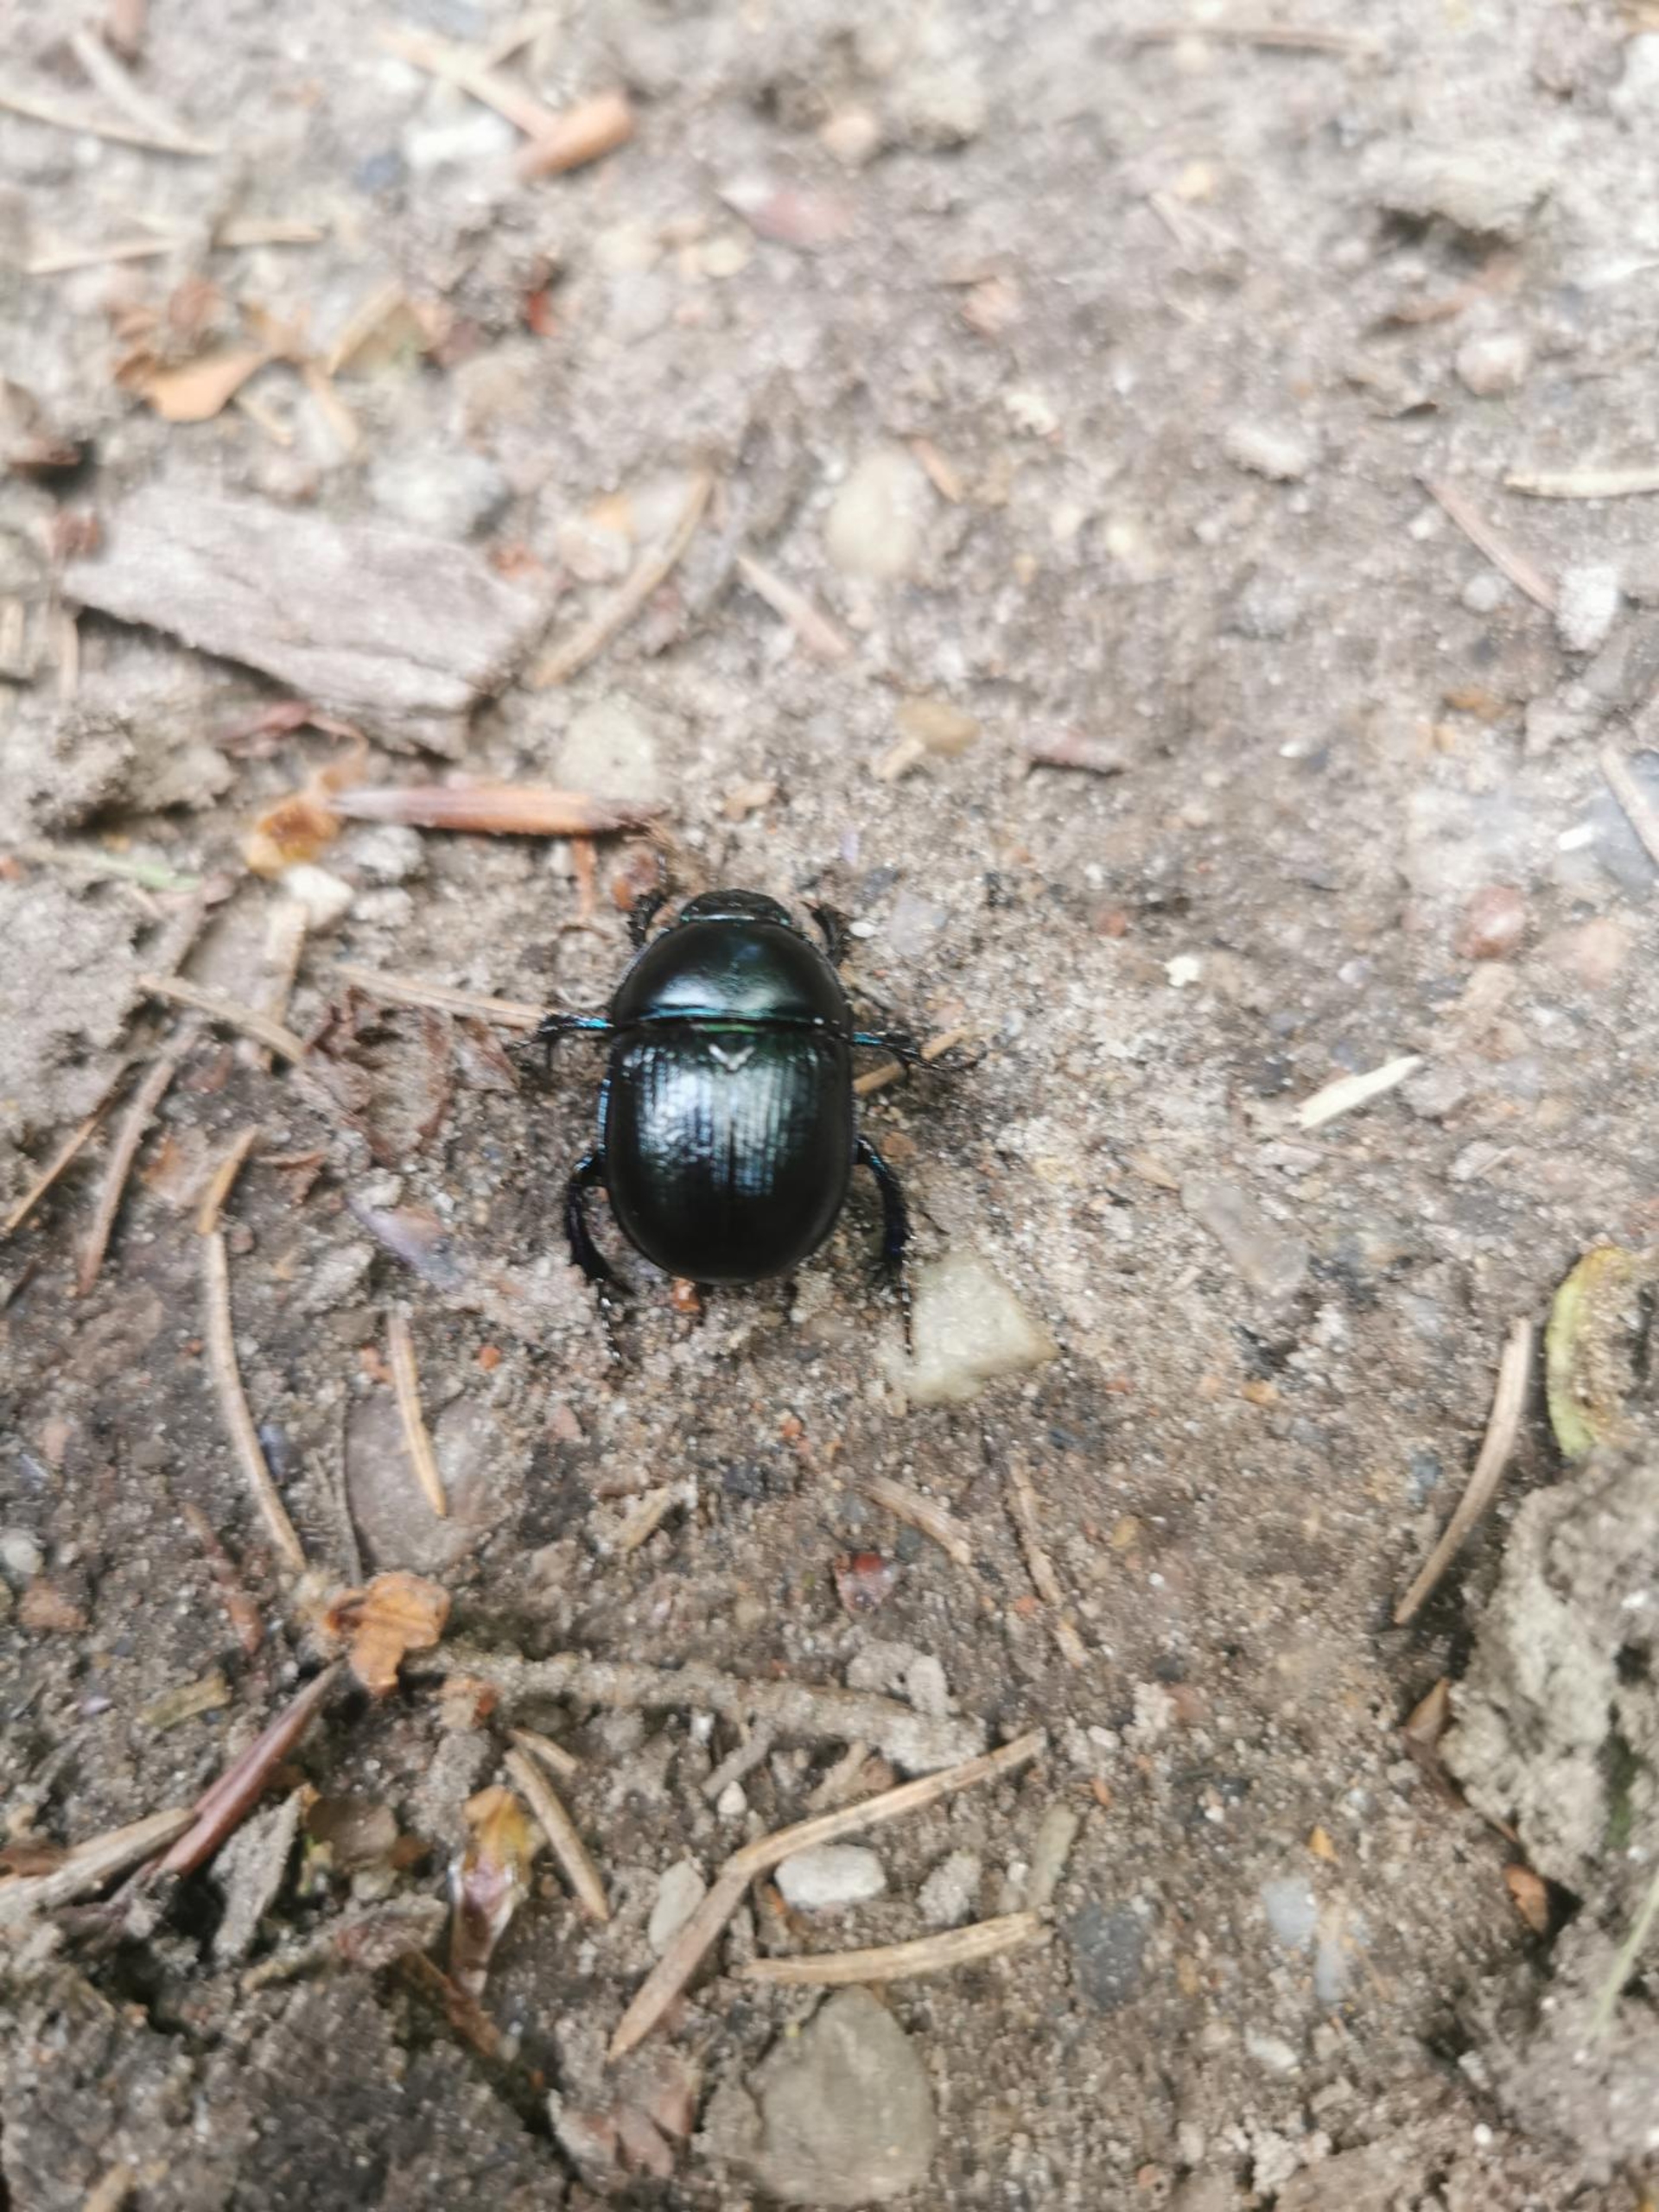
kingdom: Animalia
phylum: Arthropoda
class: Insecta
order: Coleoptera
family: Geotrupidae
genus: Anoplotrupes
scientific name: Anoplotrupes stercorosus
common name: Skovskarnbasse
